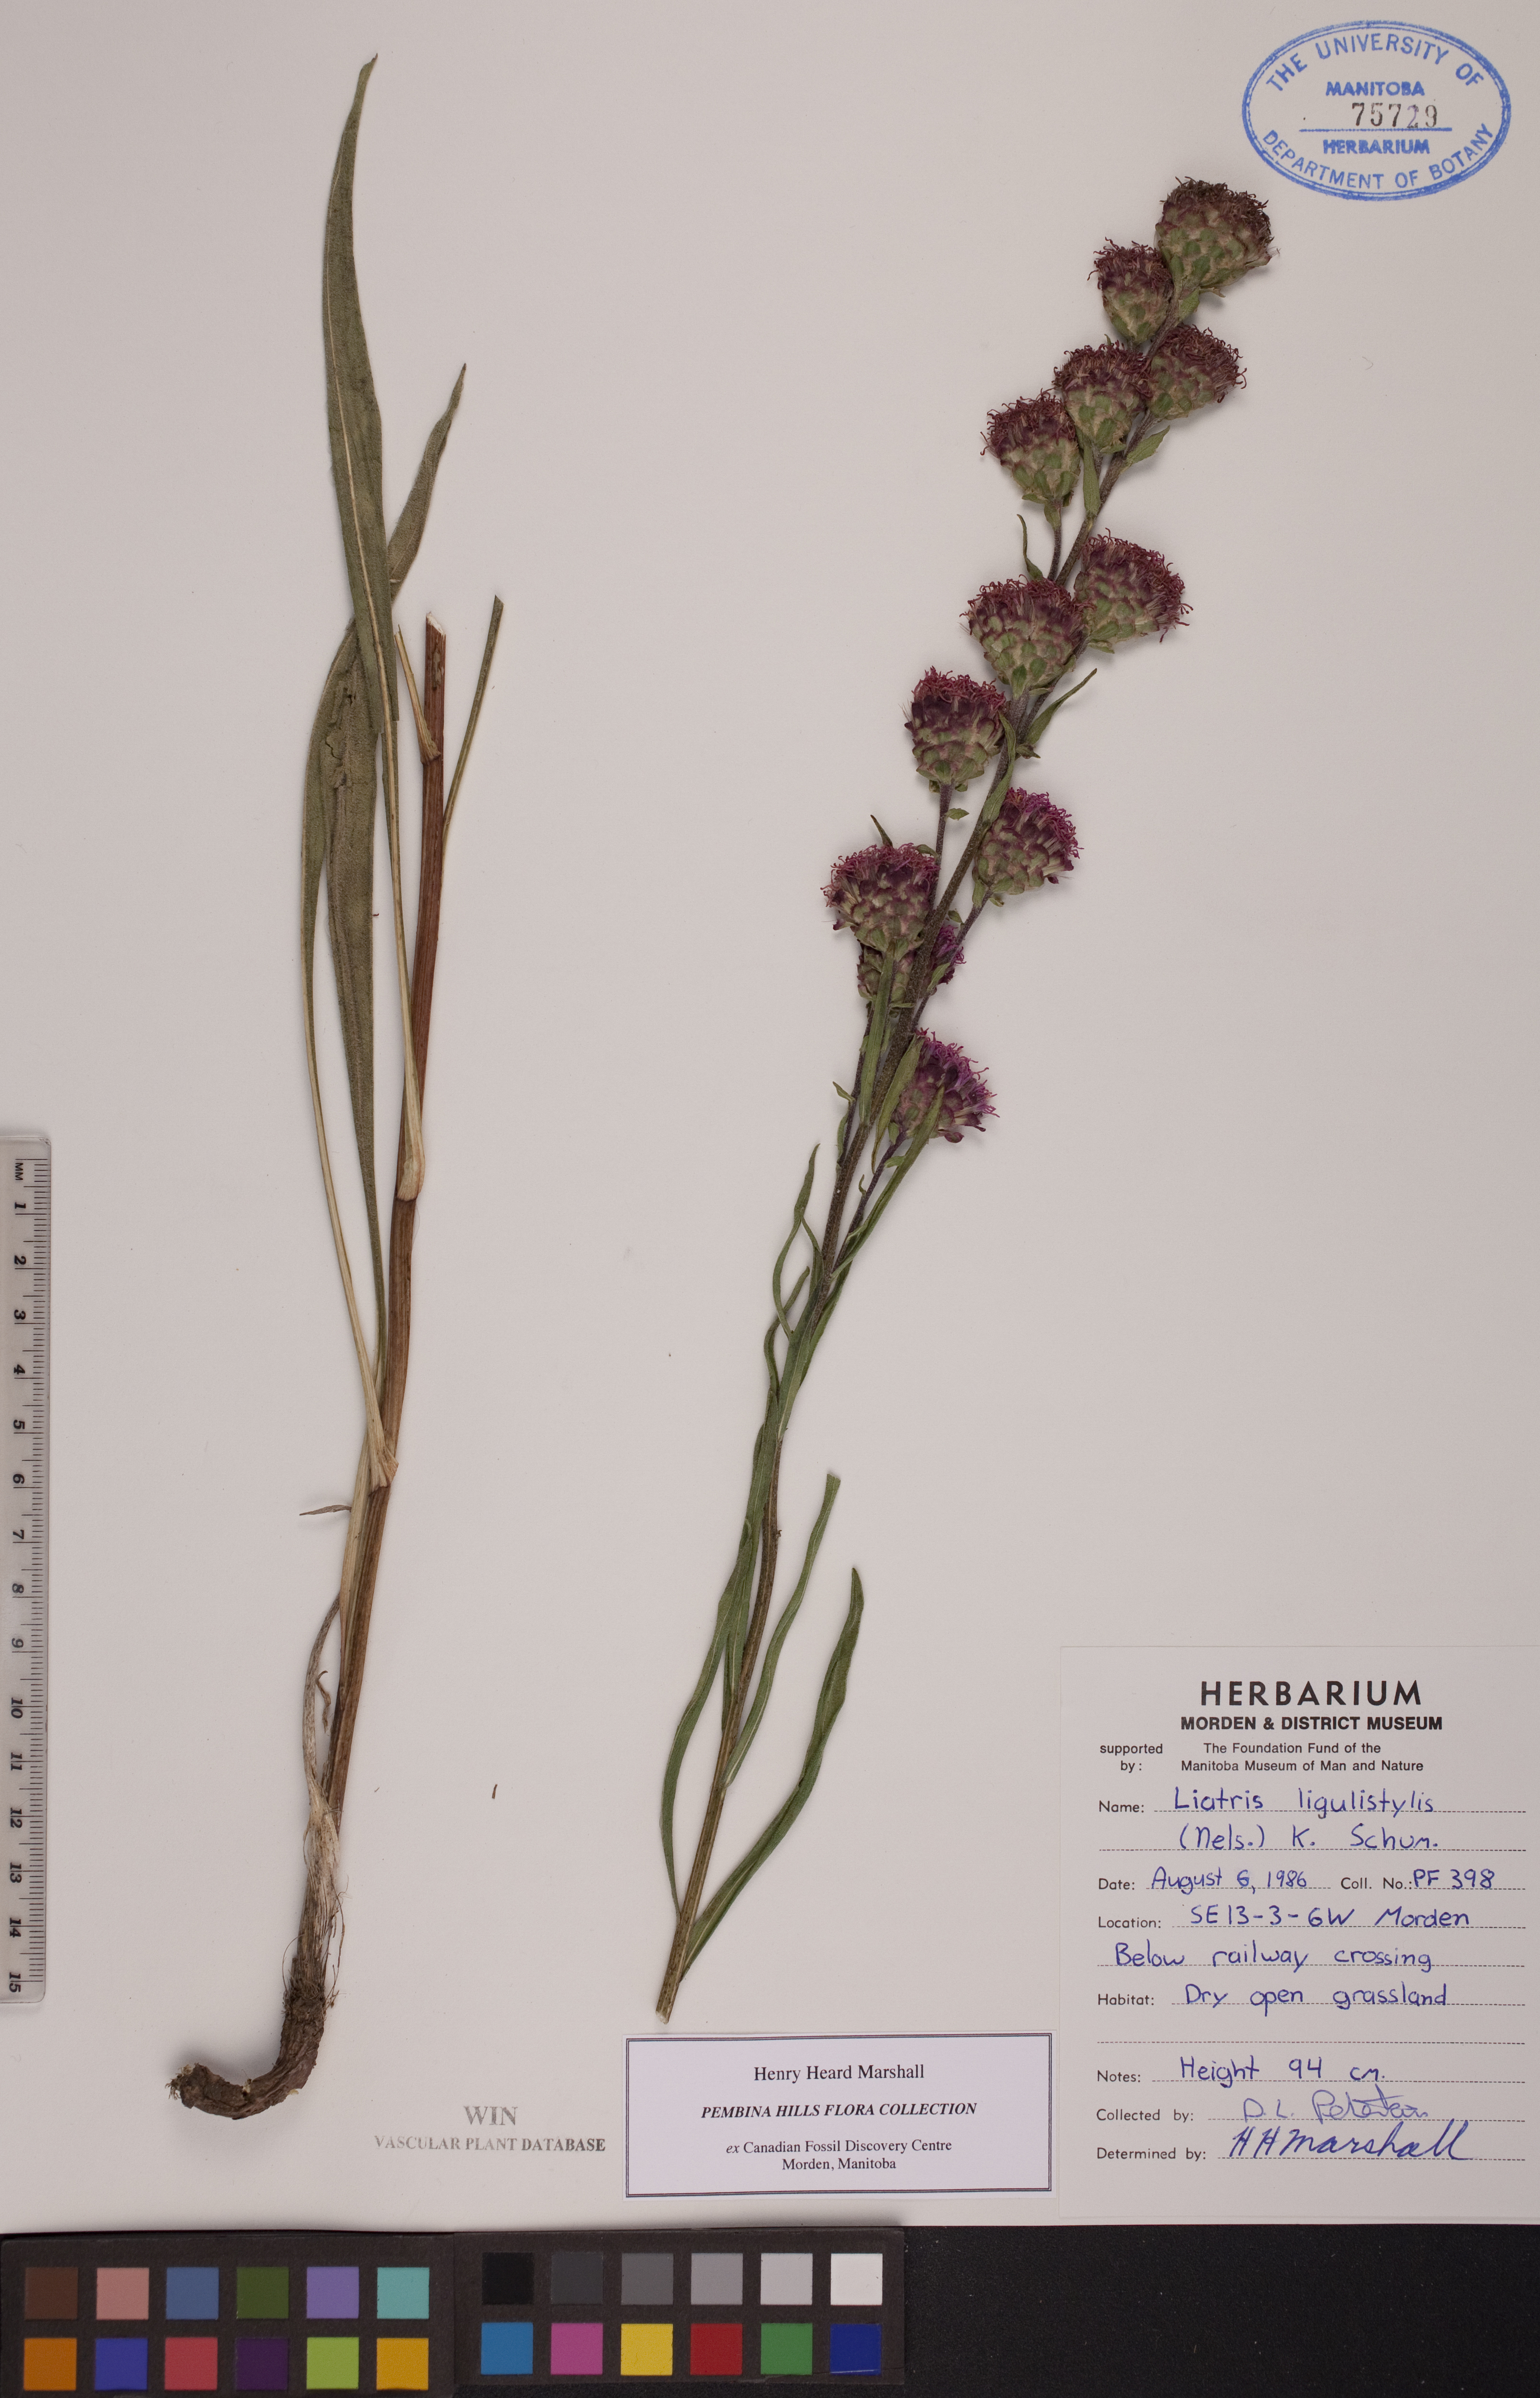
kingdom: Plantae
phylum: Tracheophyta
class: Magnoliopsida
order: Asterales
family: Asteraceae
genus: Liatris
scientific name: Liatris ligulistylis
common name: Northern plains gayfeather
